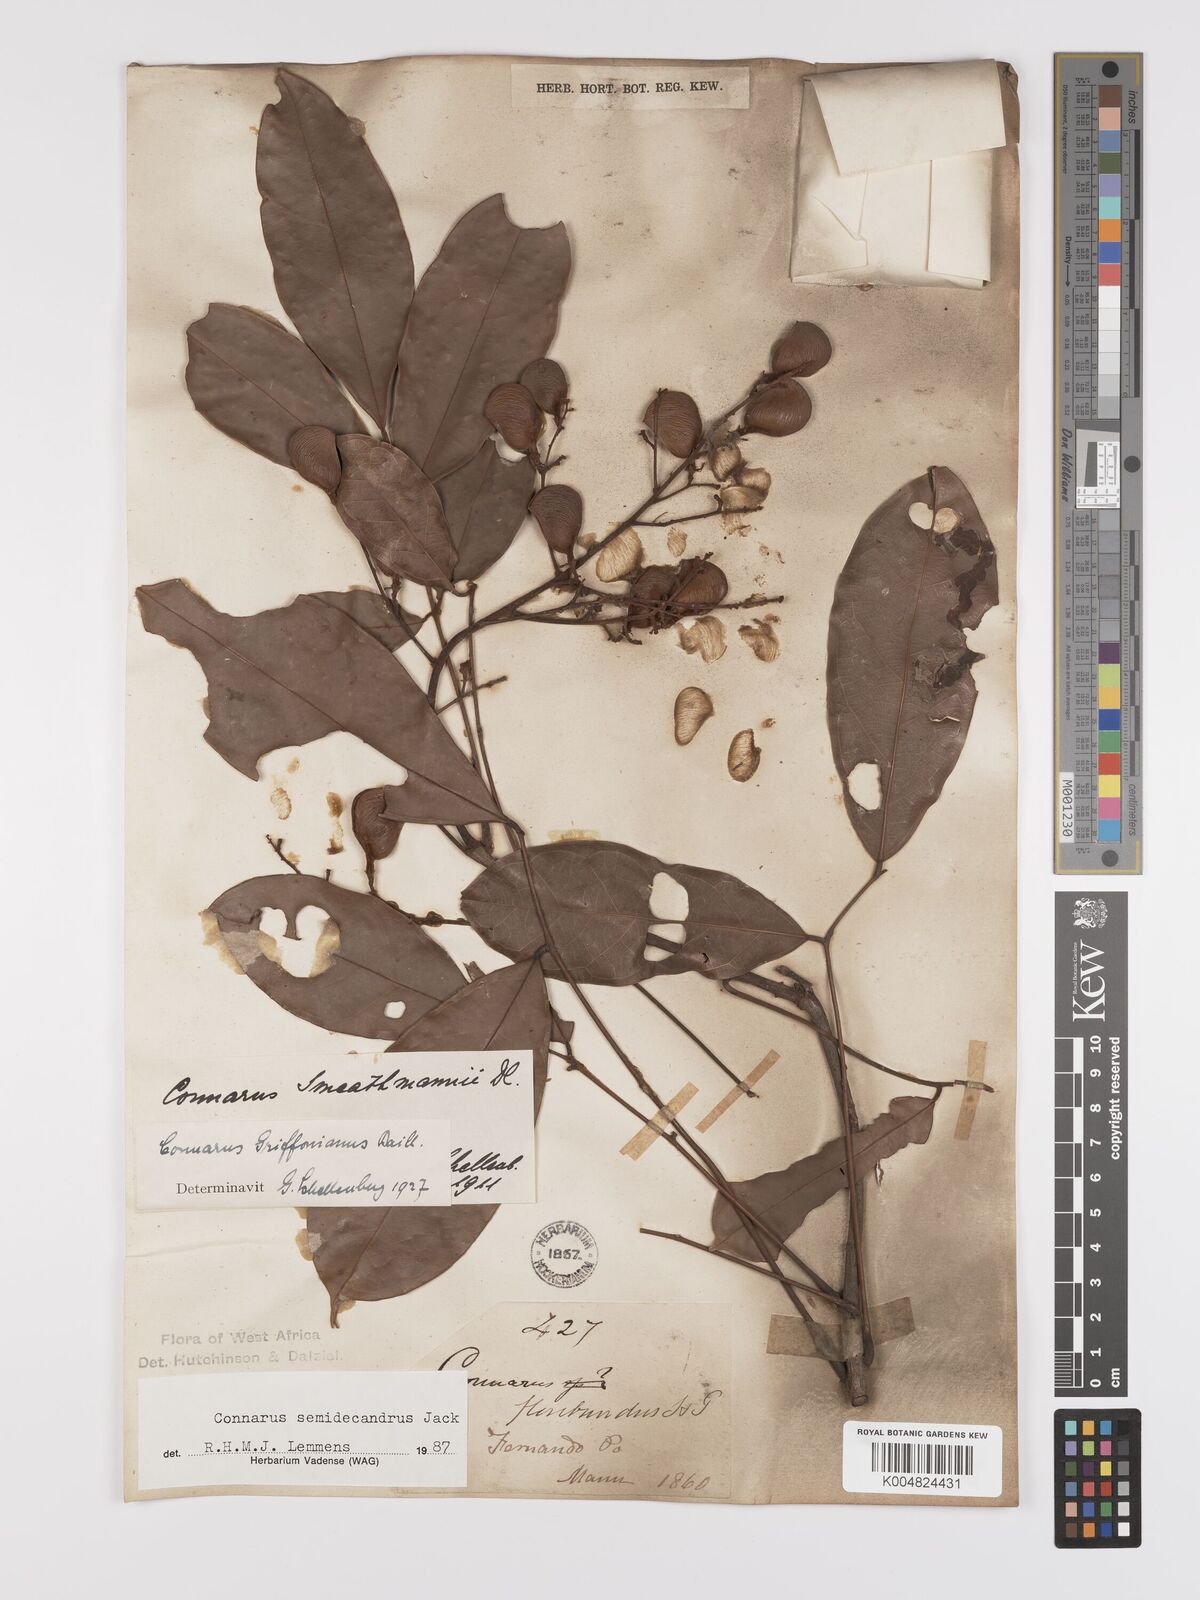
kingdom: Plantae
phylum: Tracheophyta
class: Magnoliopsida
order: Oxalidales
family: Connaraceae
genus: Connarus
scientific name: Connarus griffonianus
